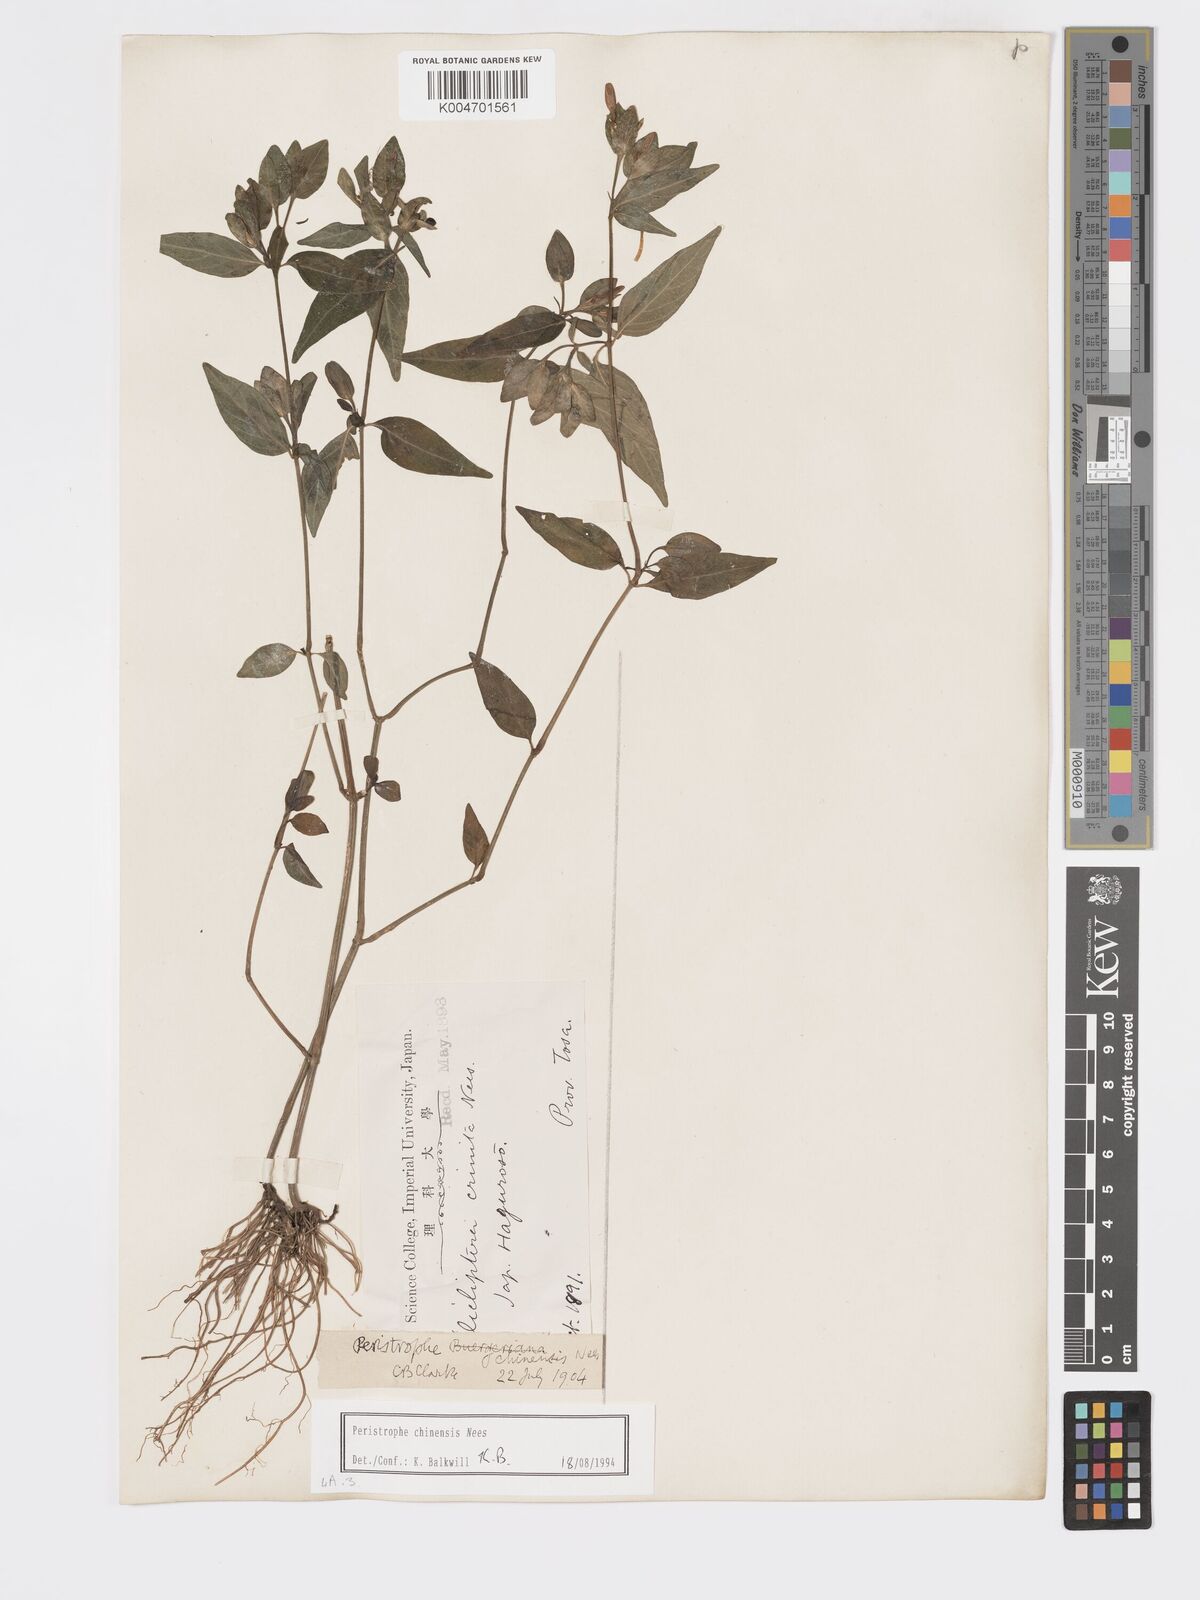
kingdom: Plantae
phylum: Tracheophyta
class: Magnoliopsida
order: Lamiales
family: Acanthaceae
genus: Dicliptera
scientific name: Dicliptera chinensis
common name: Chinese foldwing
